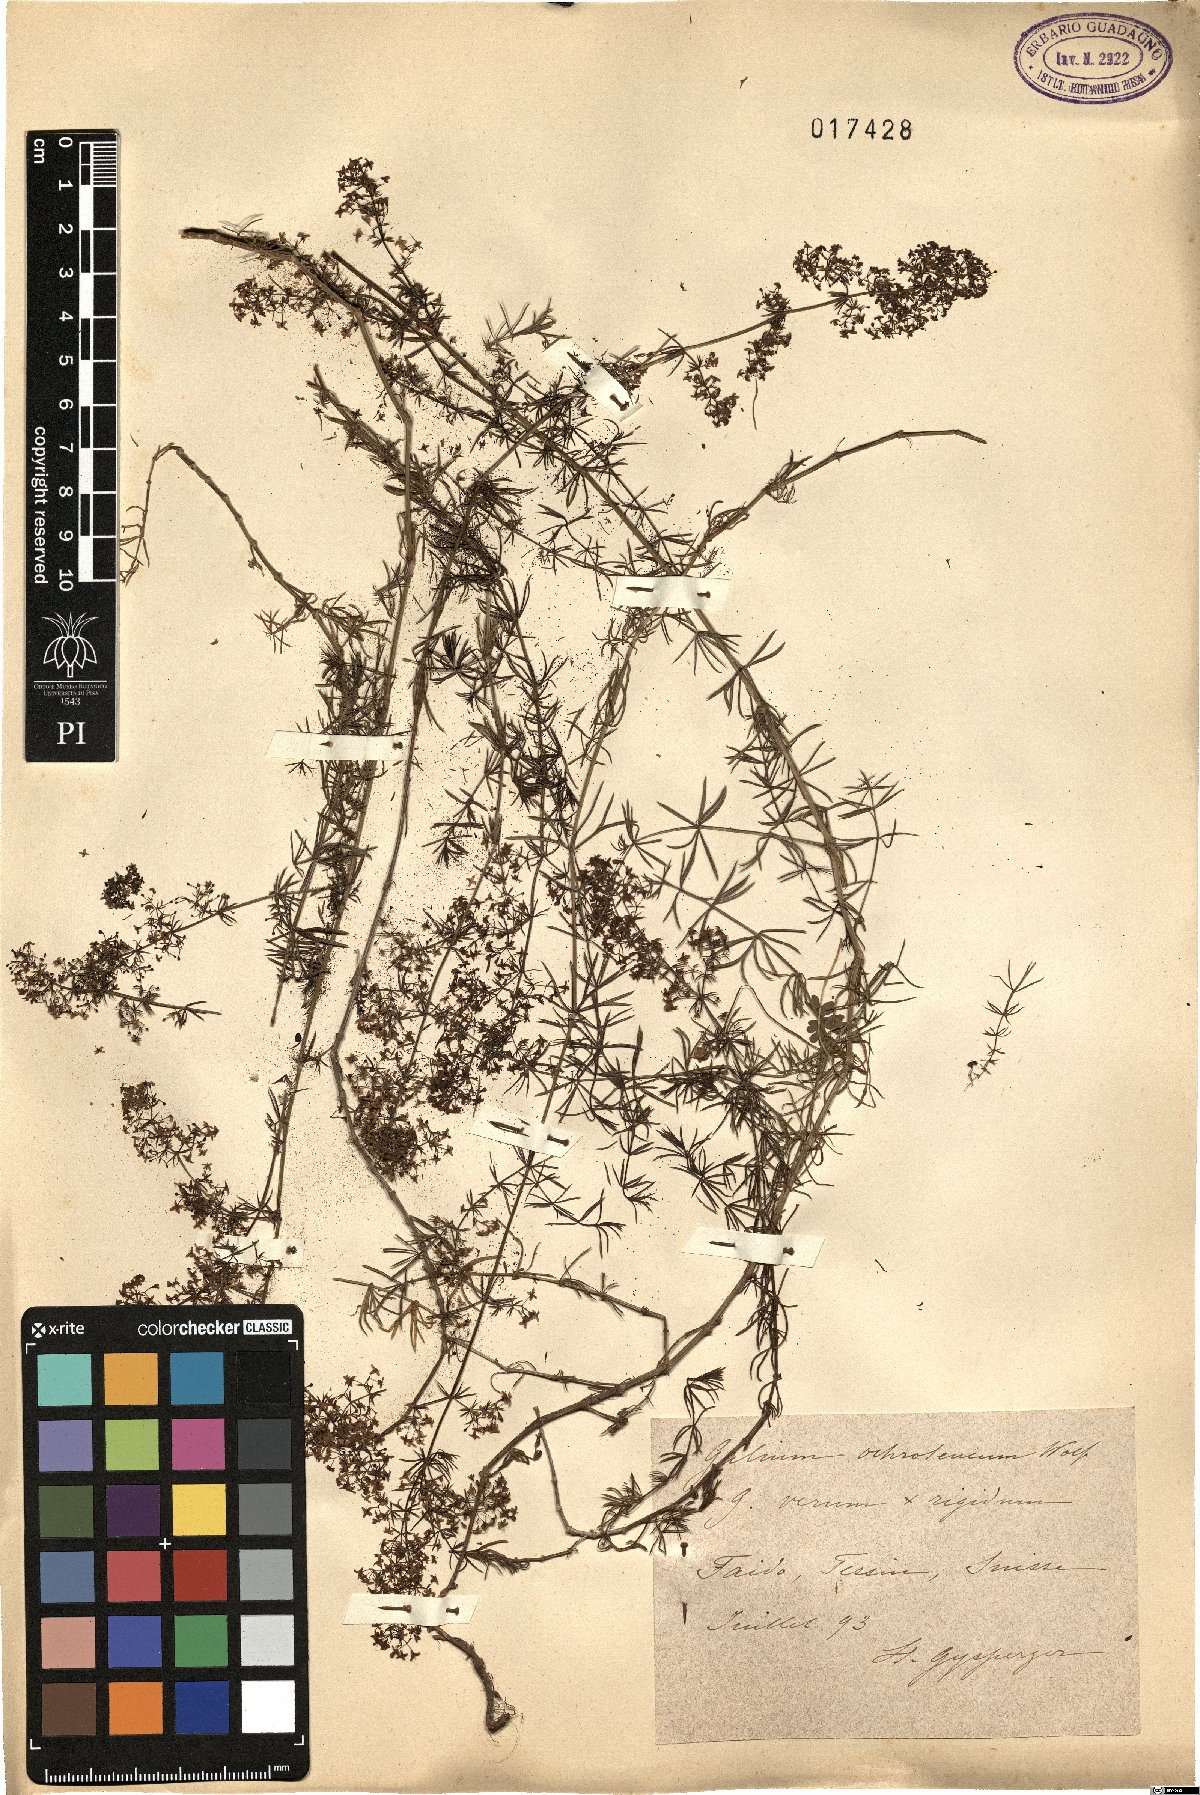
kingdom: Plantae
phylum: Tracheophyta
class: Magnoliopsida
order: Gentianales
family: Rubiaceae
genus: Galium
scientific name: Galium pomeranicum
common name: Bedstraw
